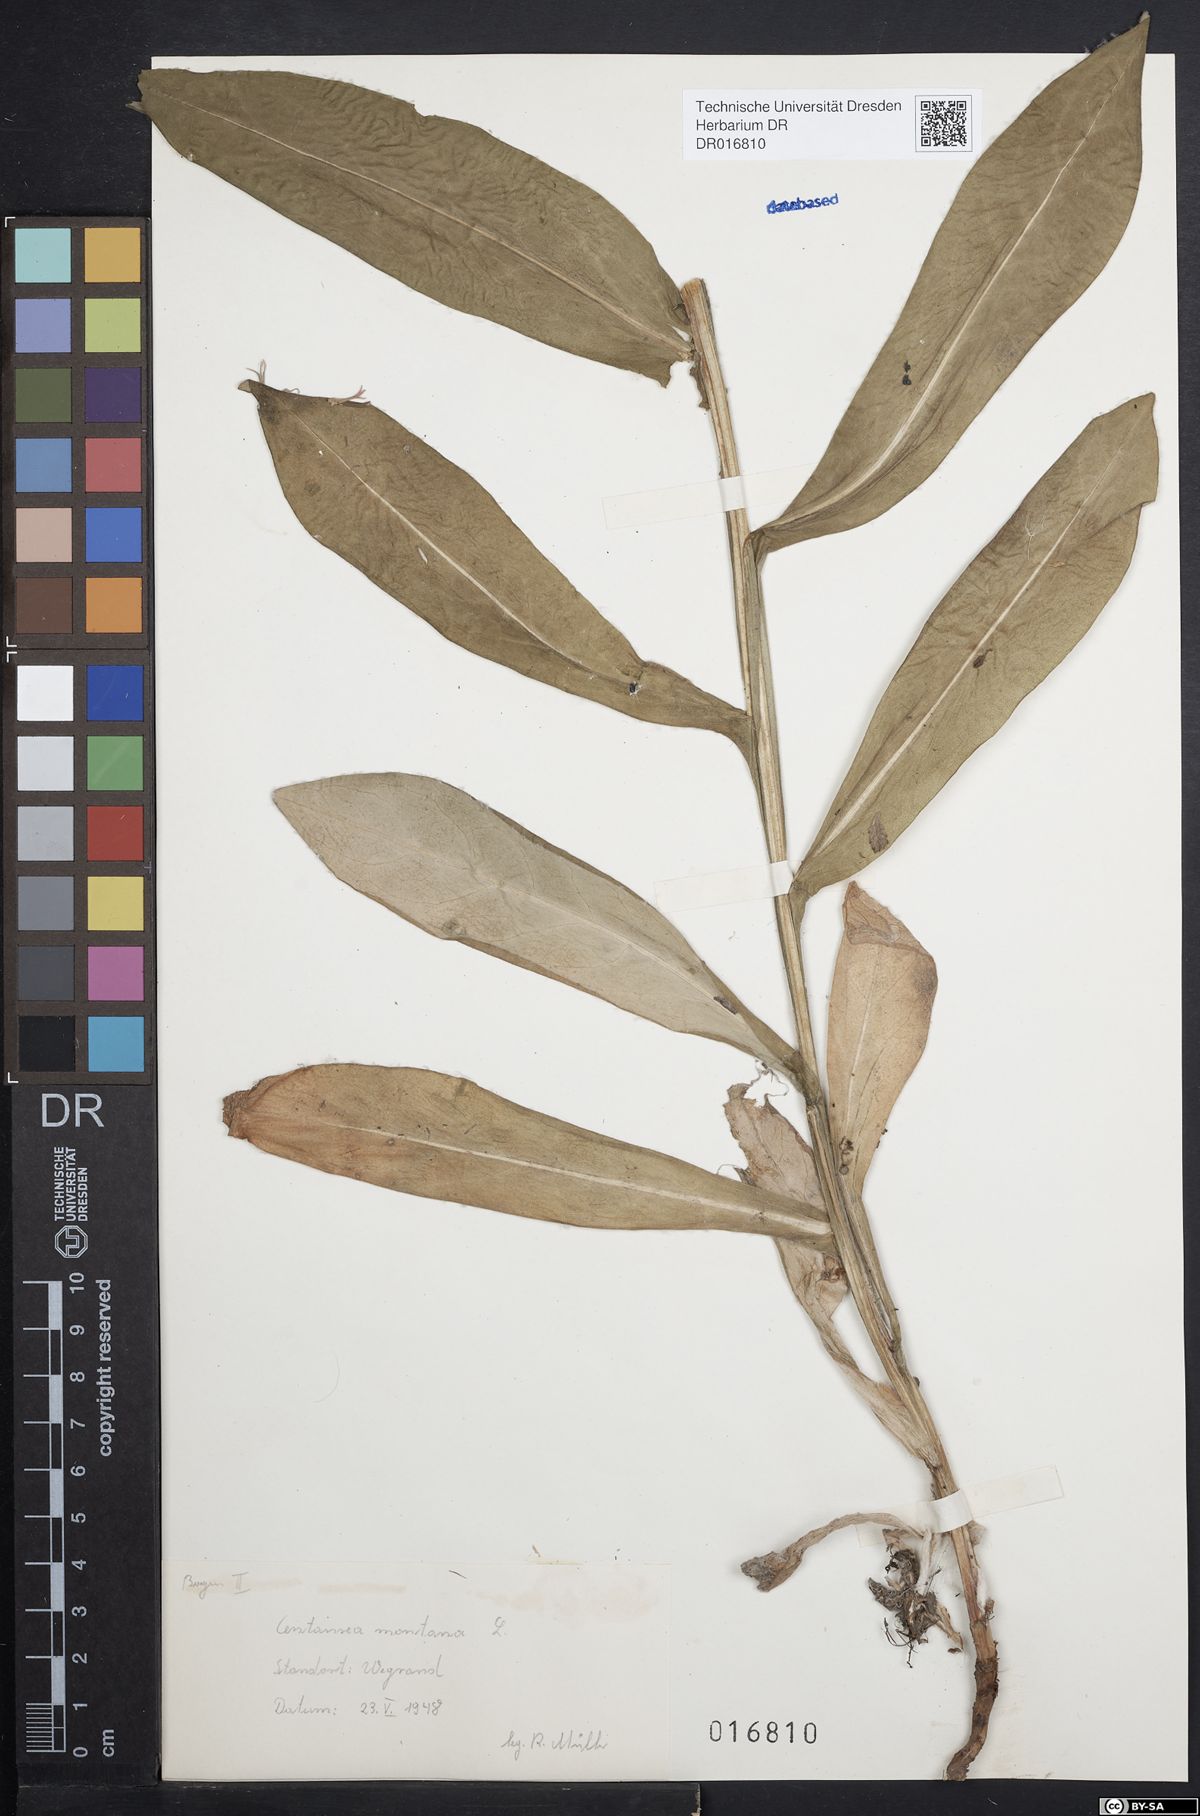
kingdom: Plantae
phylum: Tracheophyta
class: Magnoliopsida
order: Asterales
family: Asteraceae
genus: Centaurea
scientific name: Centaurea montana
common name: Perennial cornflower
